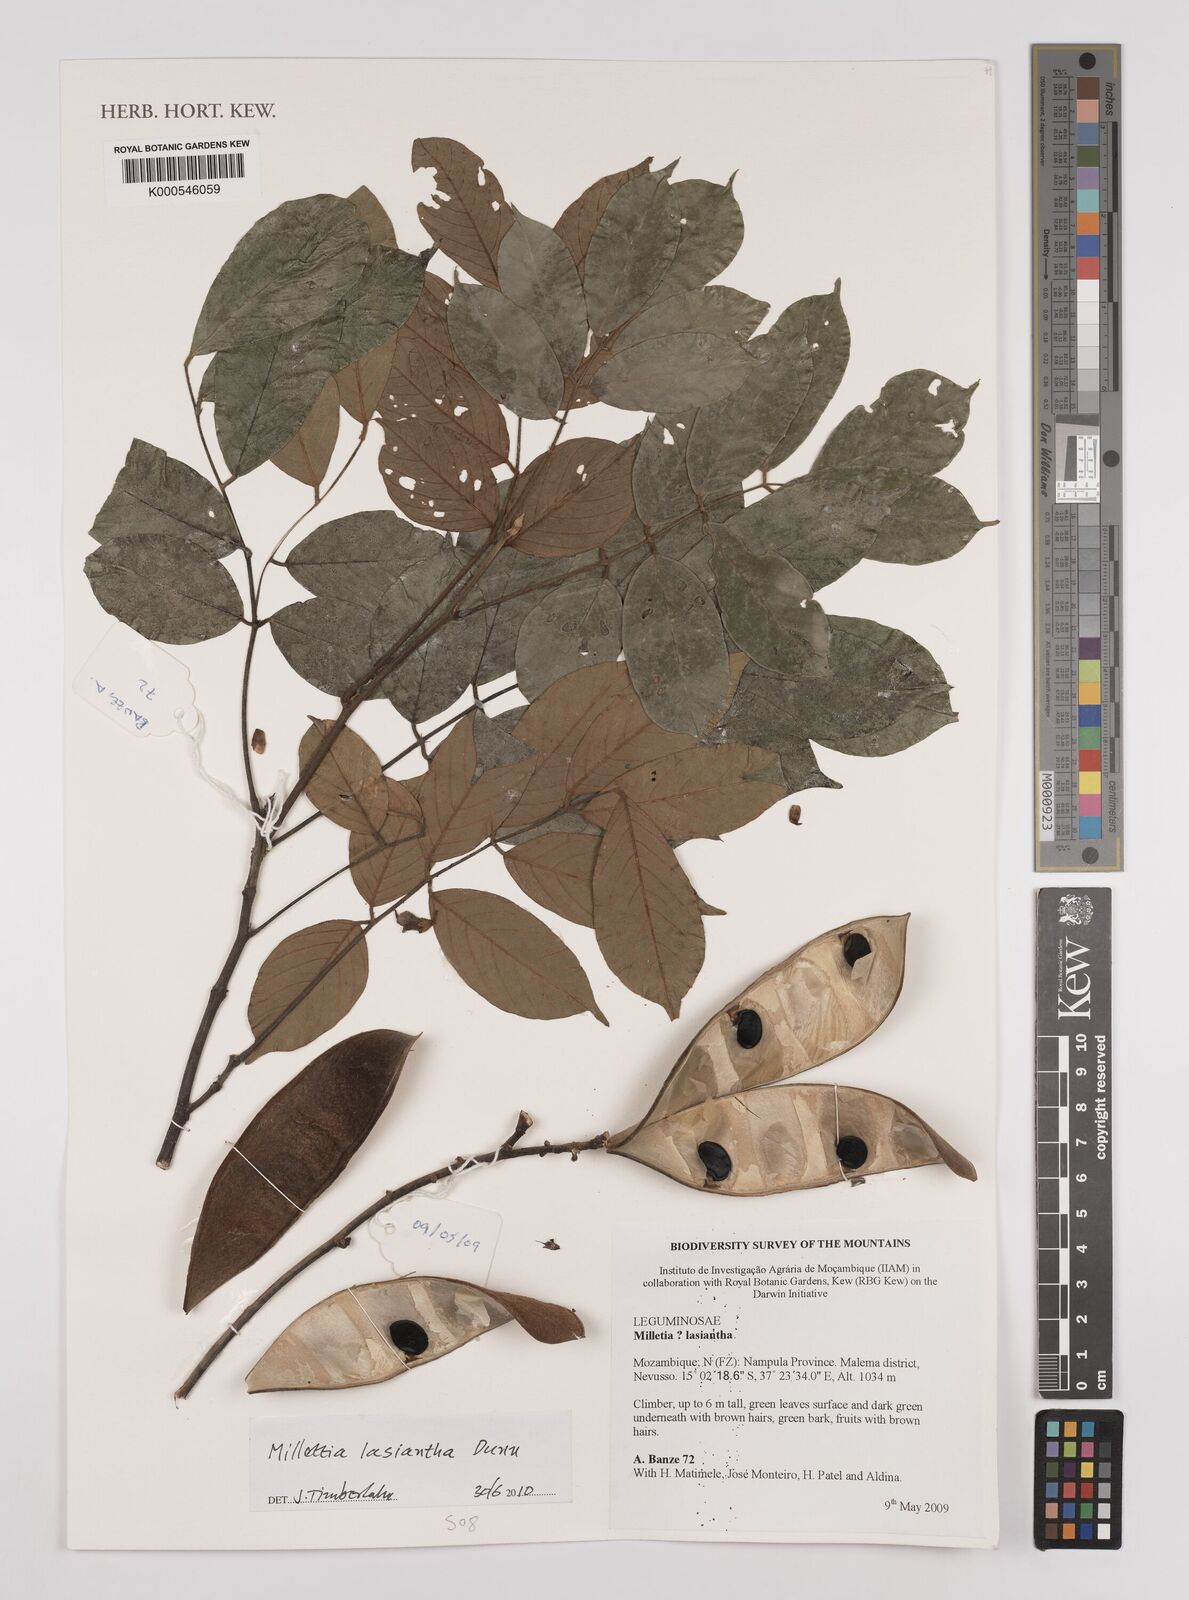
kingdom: Plantae
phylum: Tracheophyta
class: Magnoliopsida
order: Fabales
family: Fabaceae
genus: Millettia
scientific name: Millettia lasiantha
